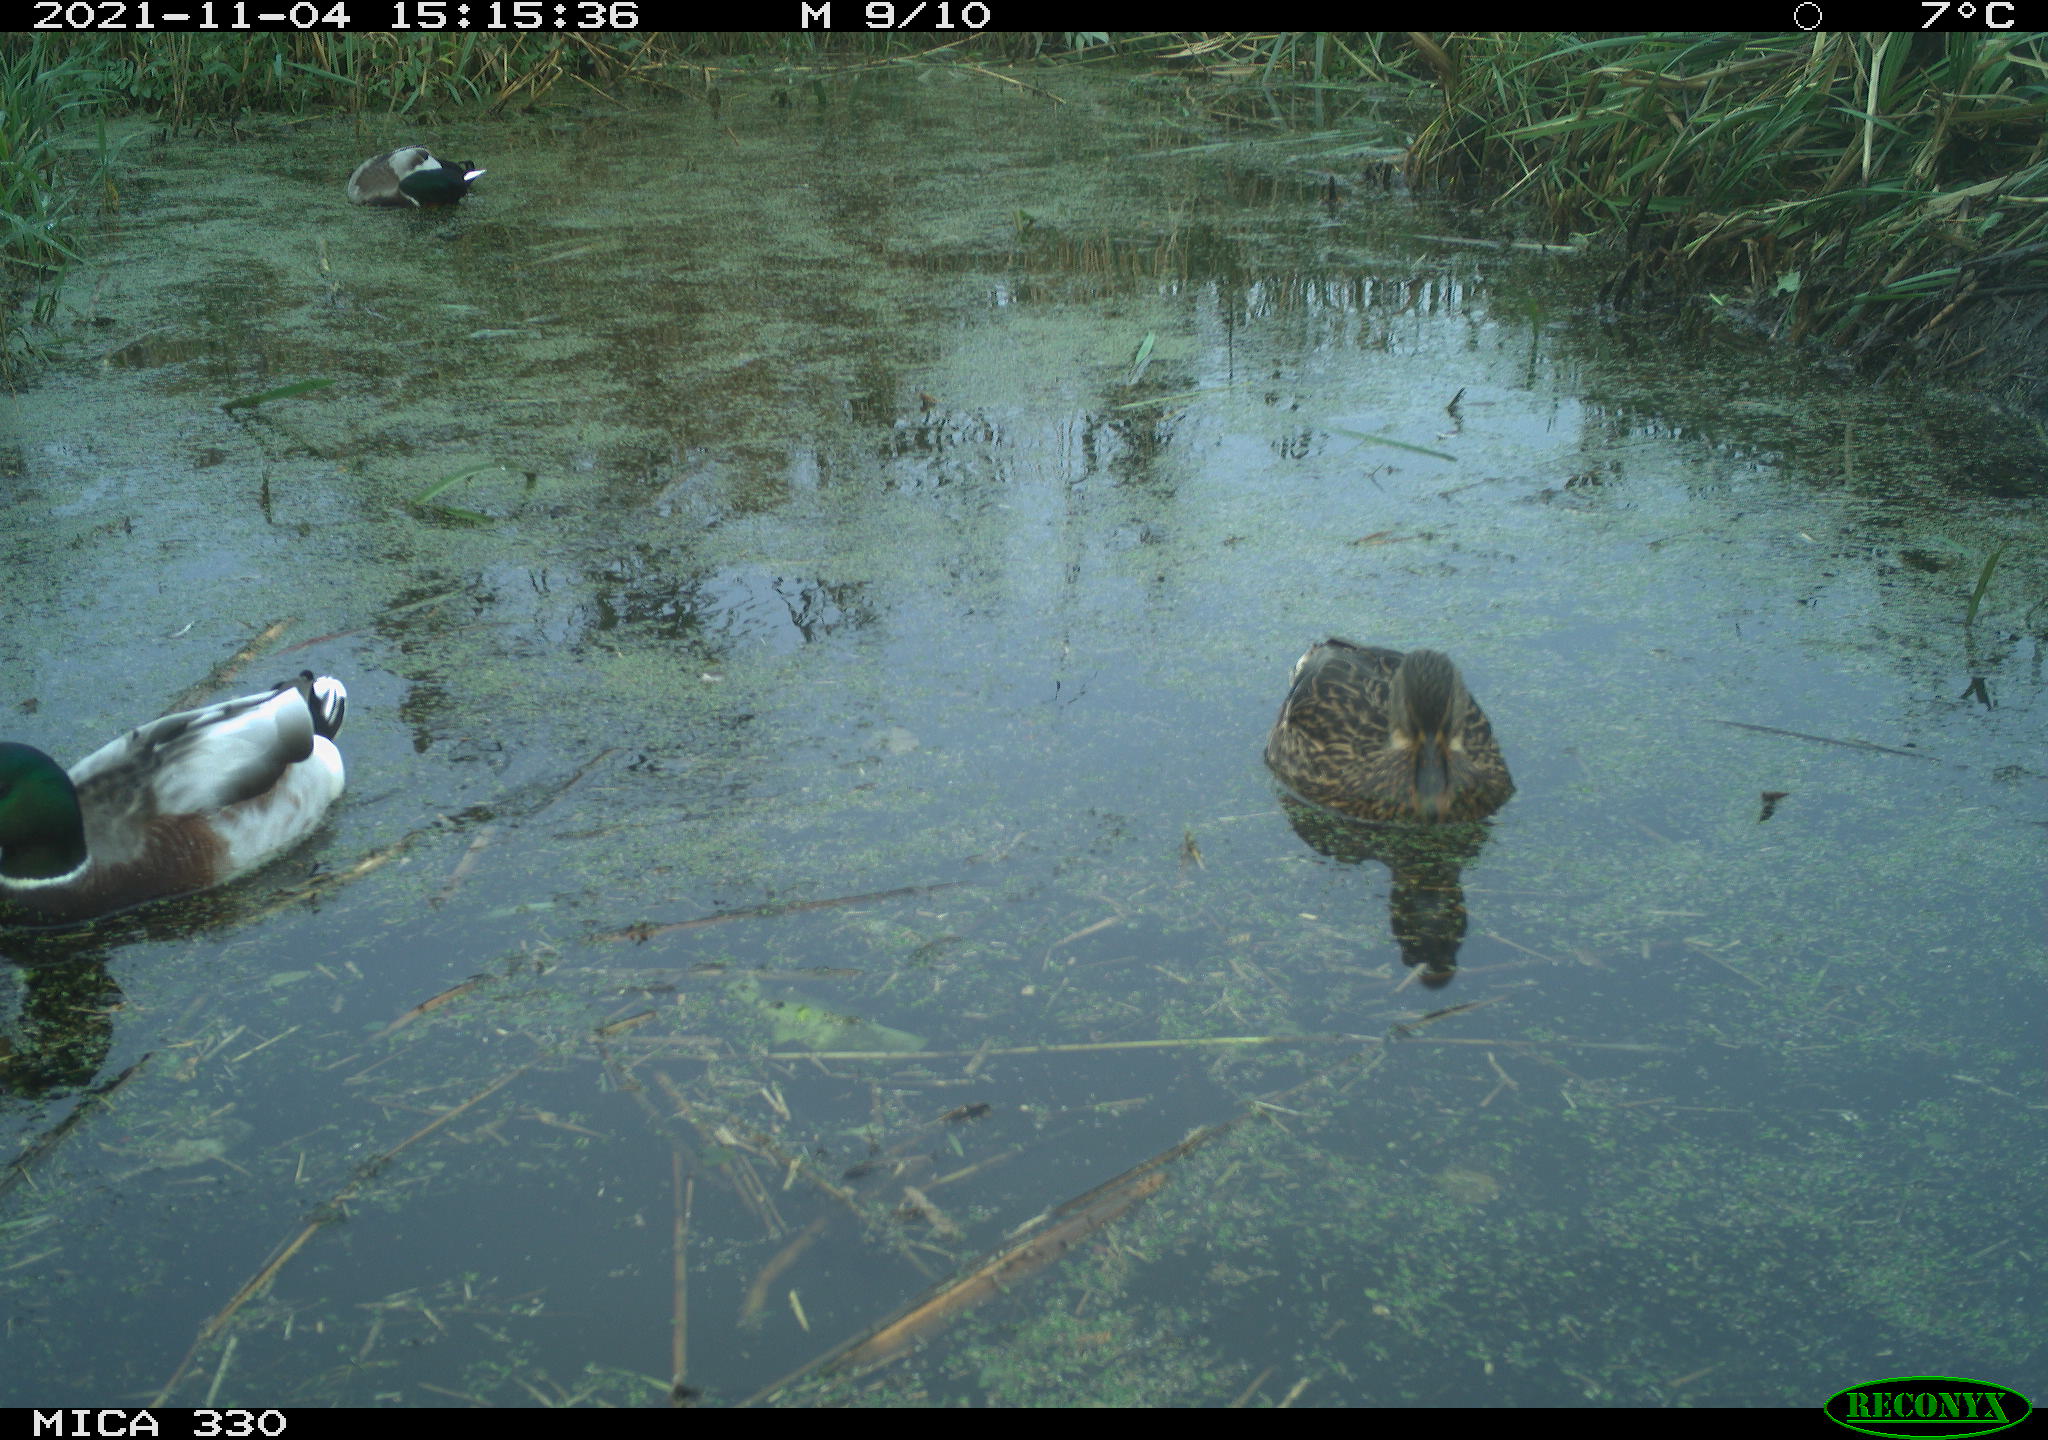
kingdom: Animalia
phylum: Chordata
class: Aves
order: Anseriformes
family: Anatidae
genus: Anas
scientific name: Anas platyrhynchos
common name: Mallard
